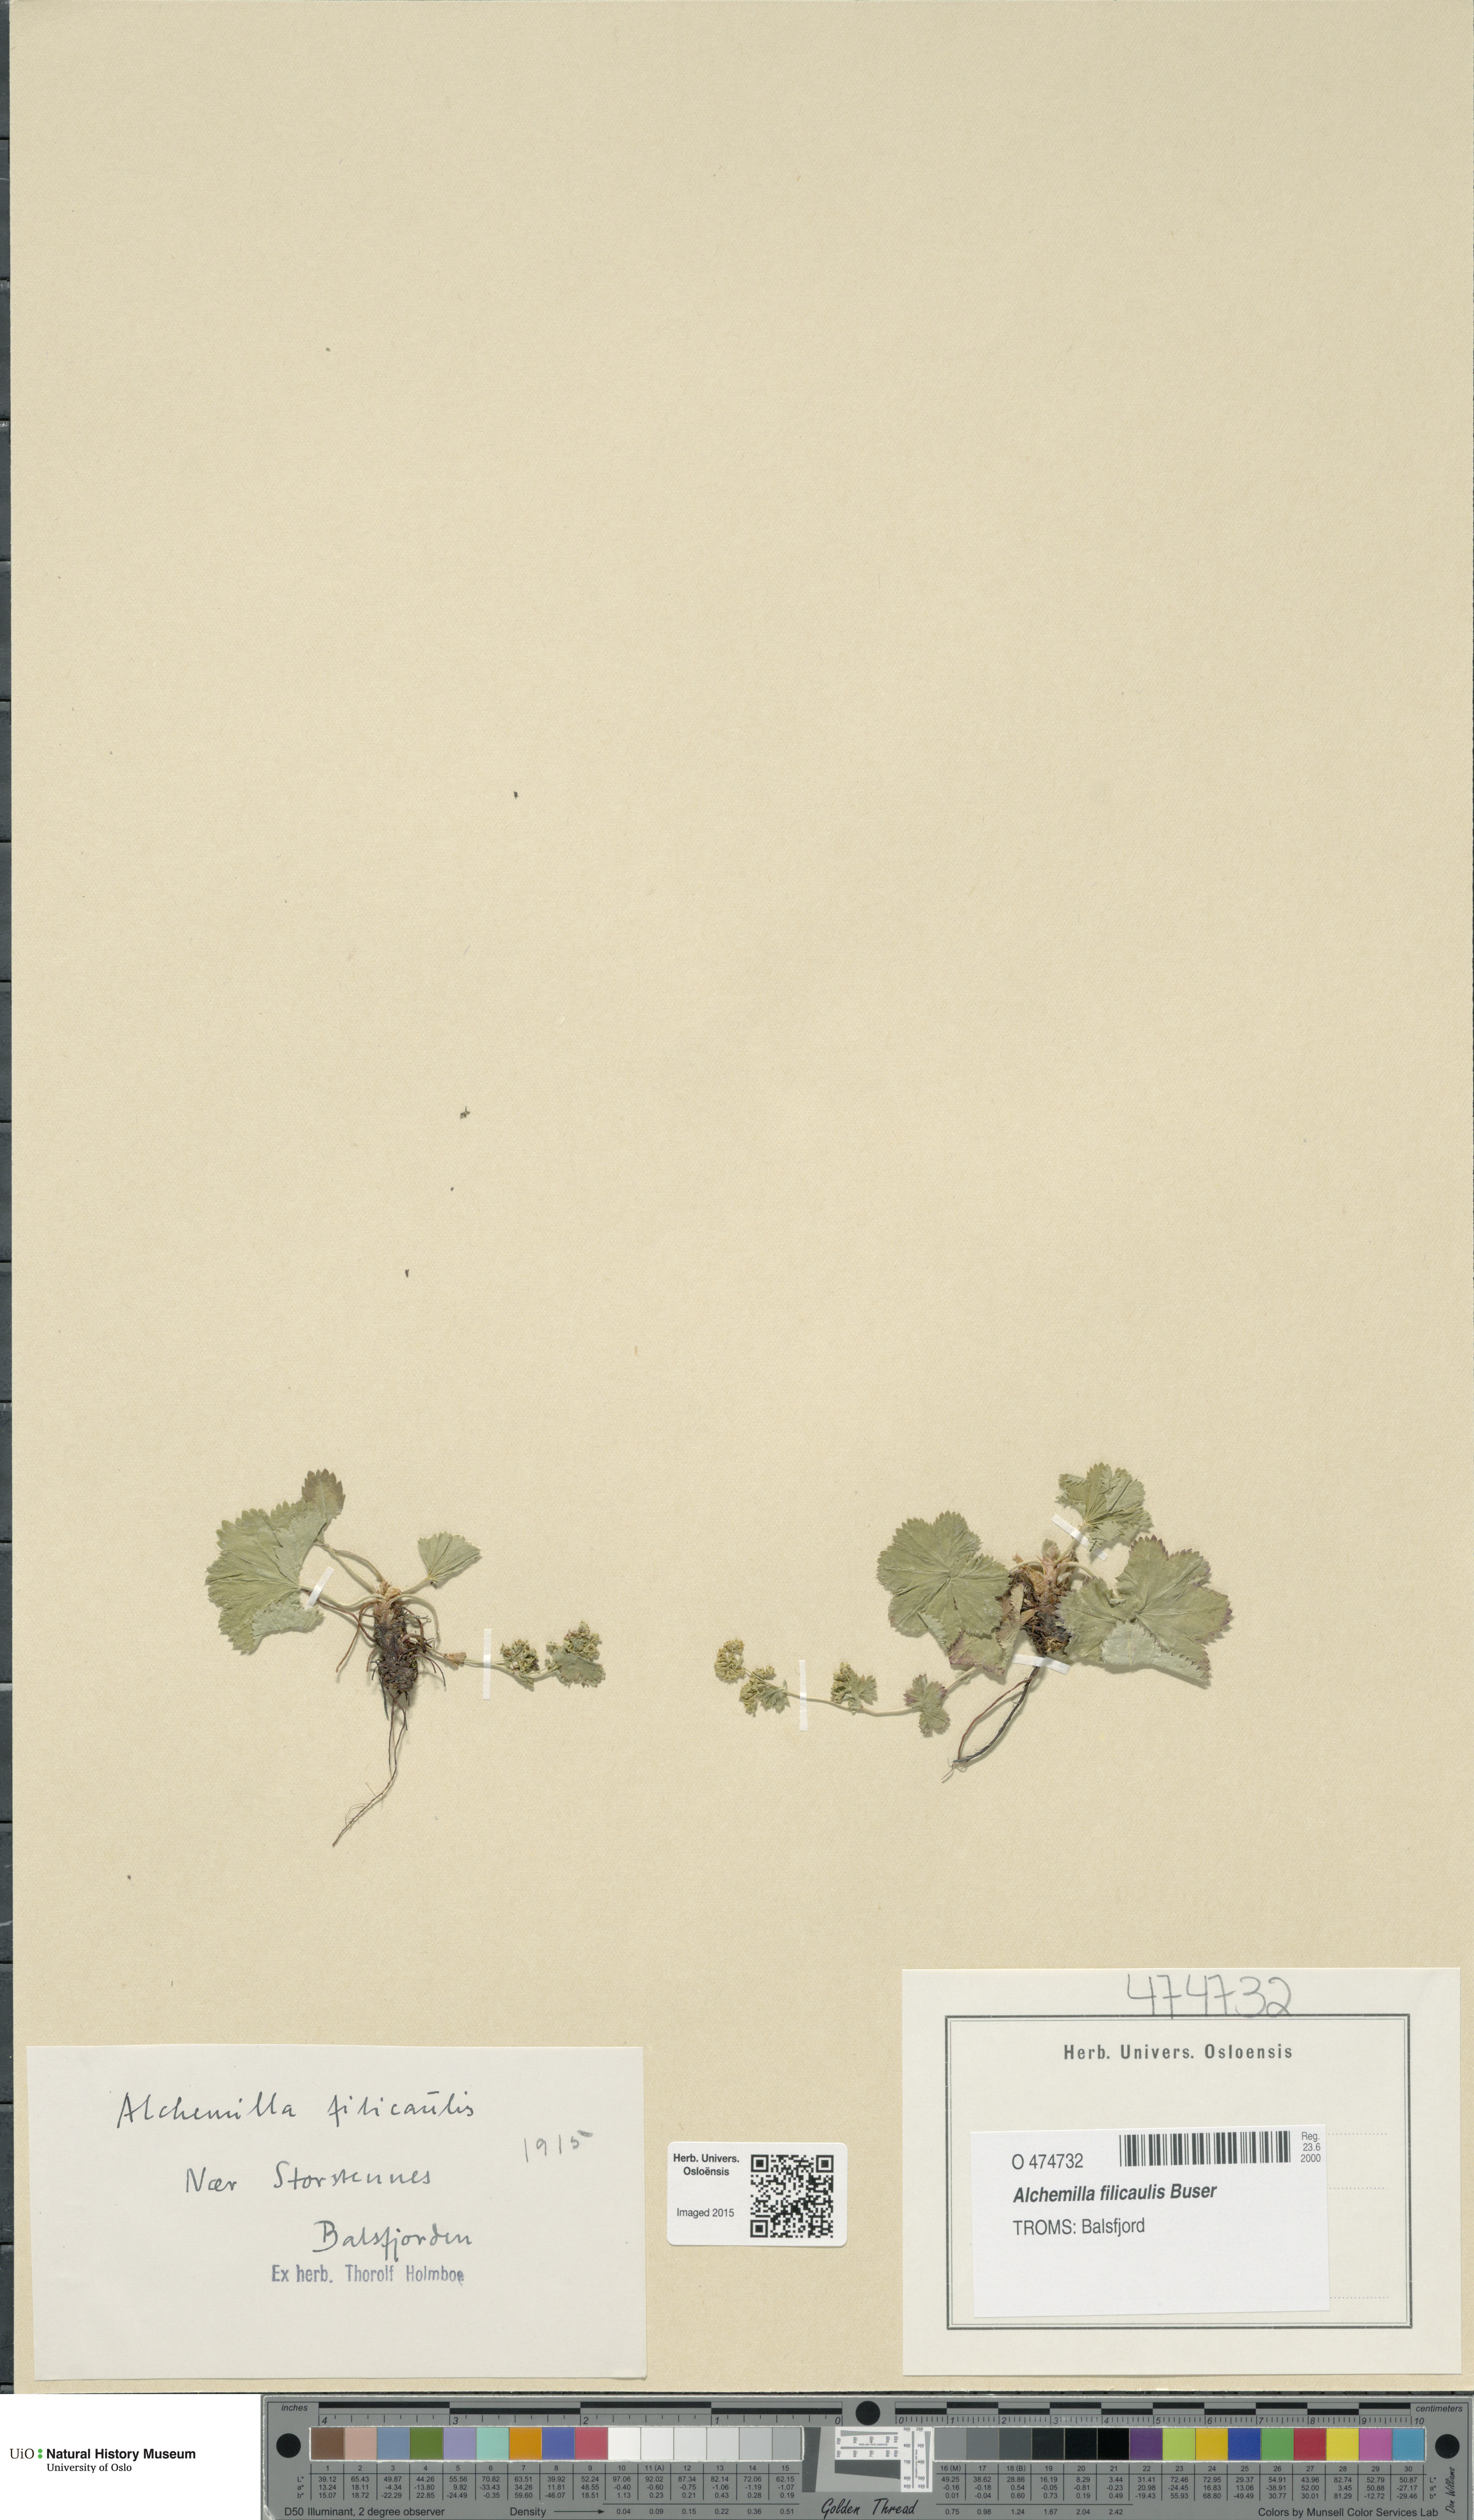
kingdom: Plantae
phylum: Tracheophyta
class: Magnoliopsida
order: Rosales
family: Rosaceae
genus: Alchemilla
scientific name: Alchemilla filicaulis
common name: Hairy lady's-mantle
